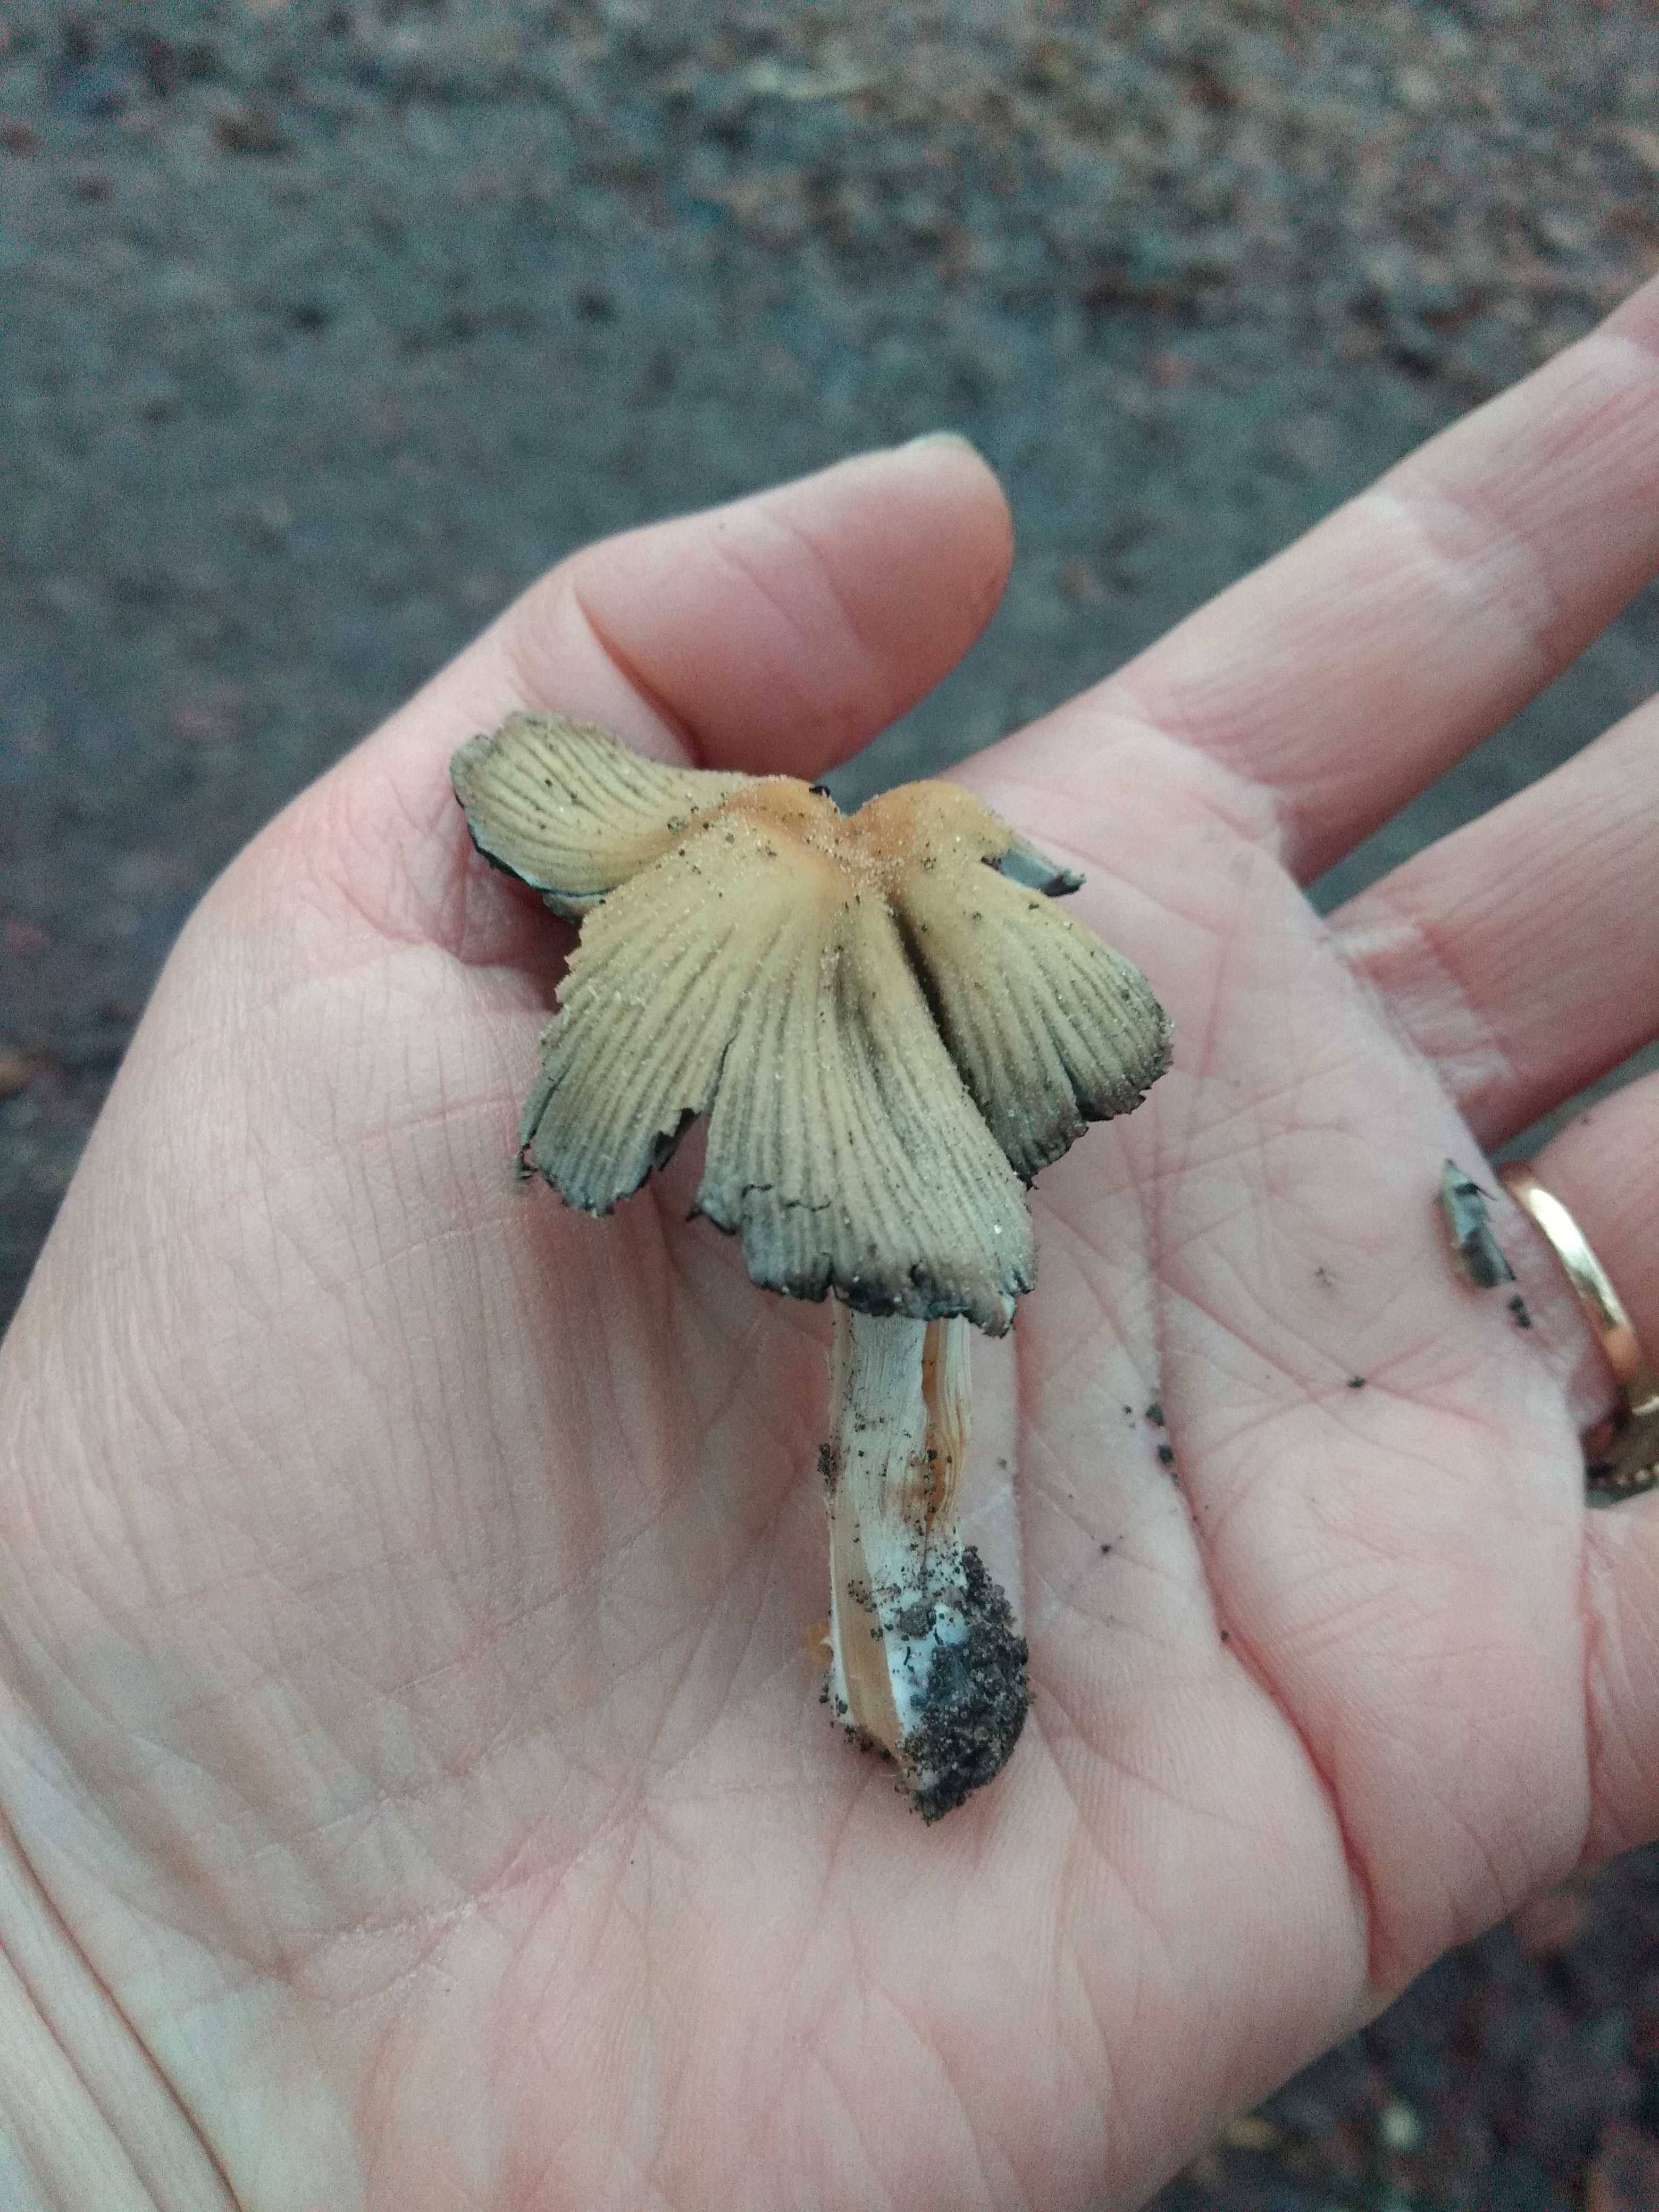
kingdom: Fungi
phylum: Basidiomycota
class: Agaricomycetes
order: Agaricales
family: Psathyrellaceae
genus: Coprinellus
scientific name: Coprinellus
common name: blækhat
